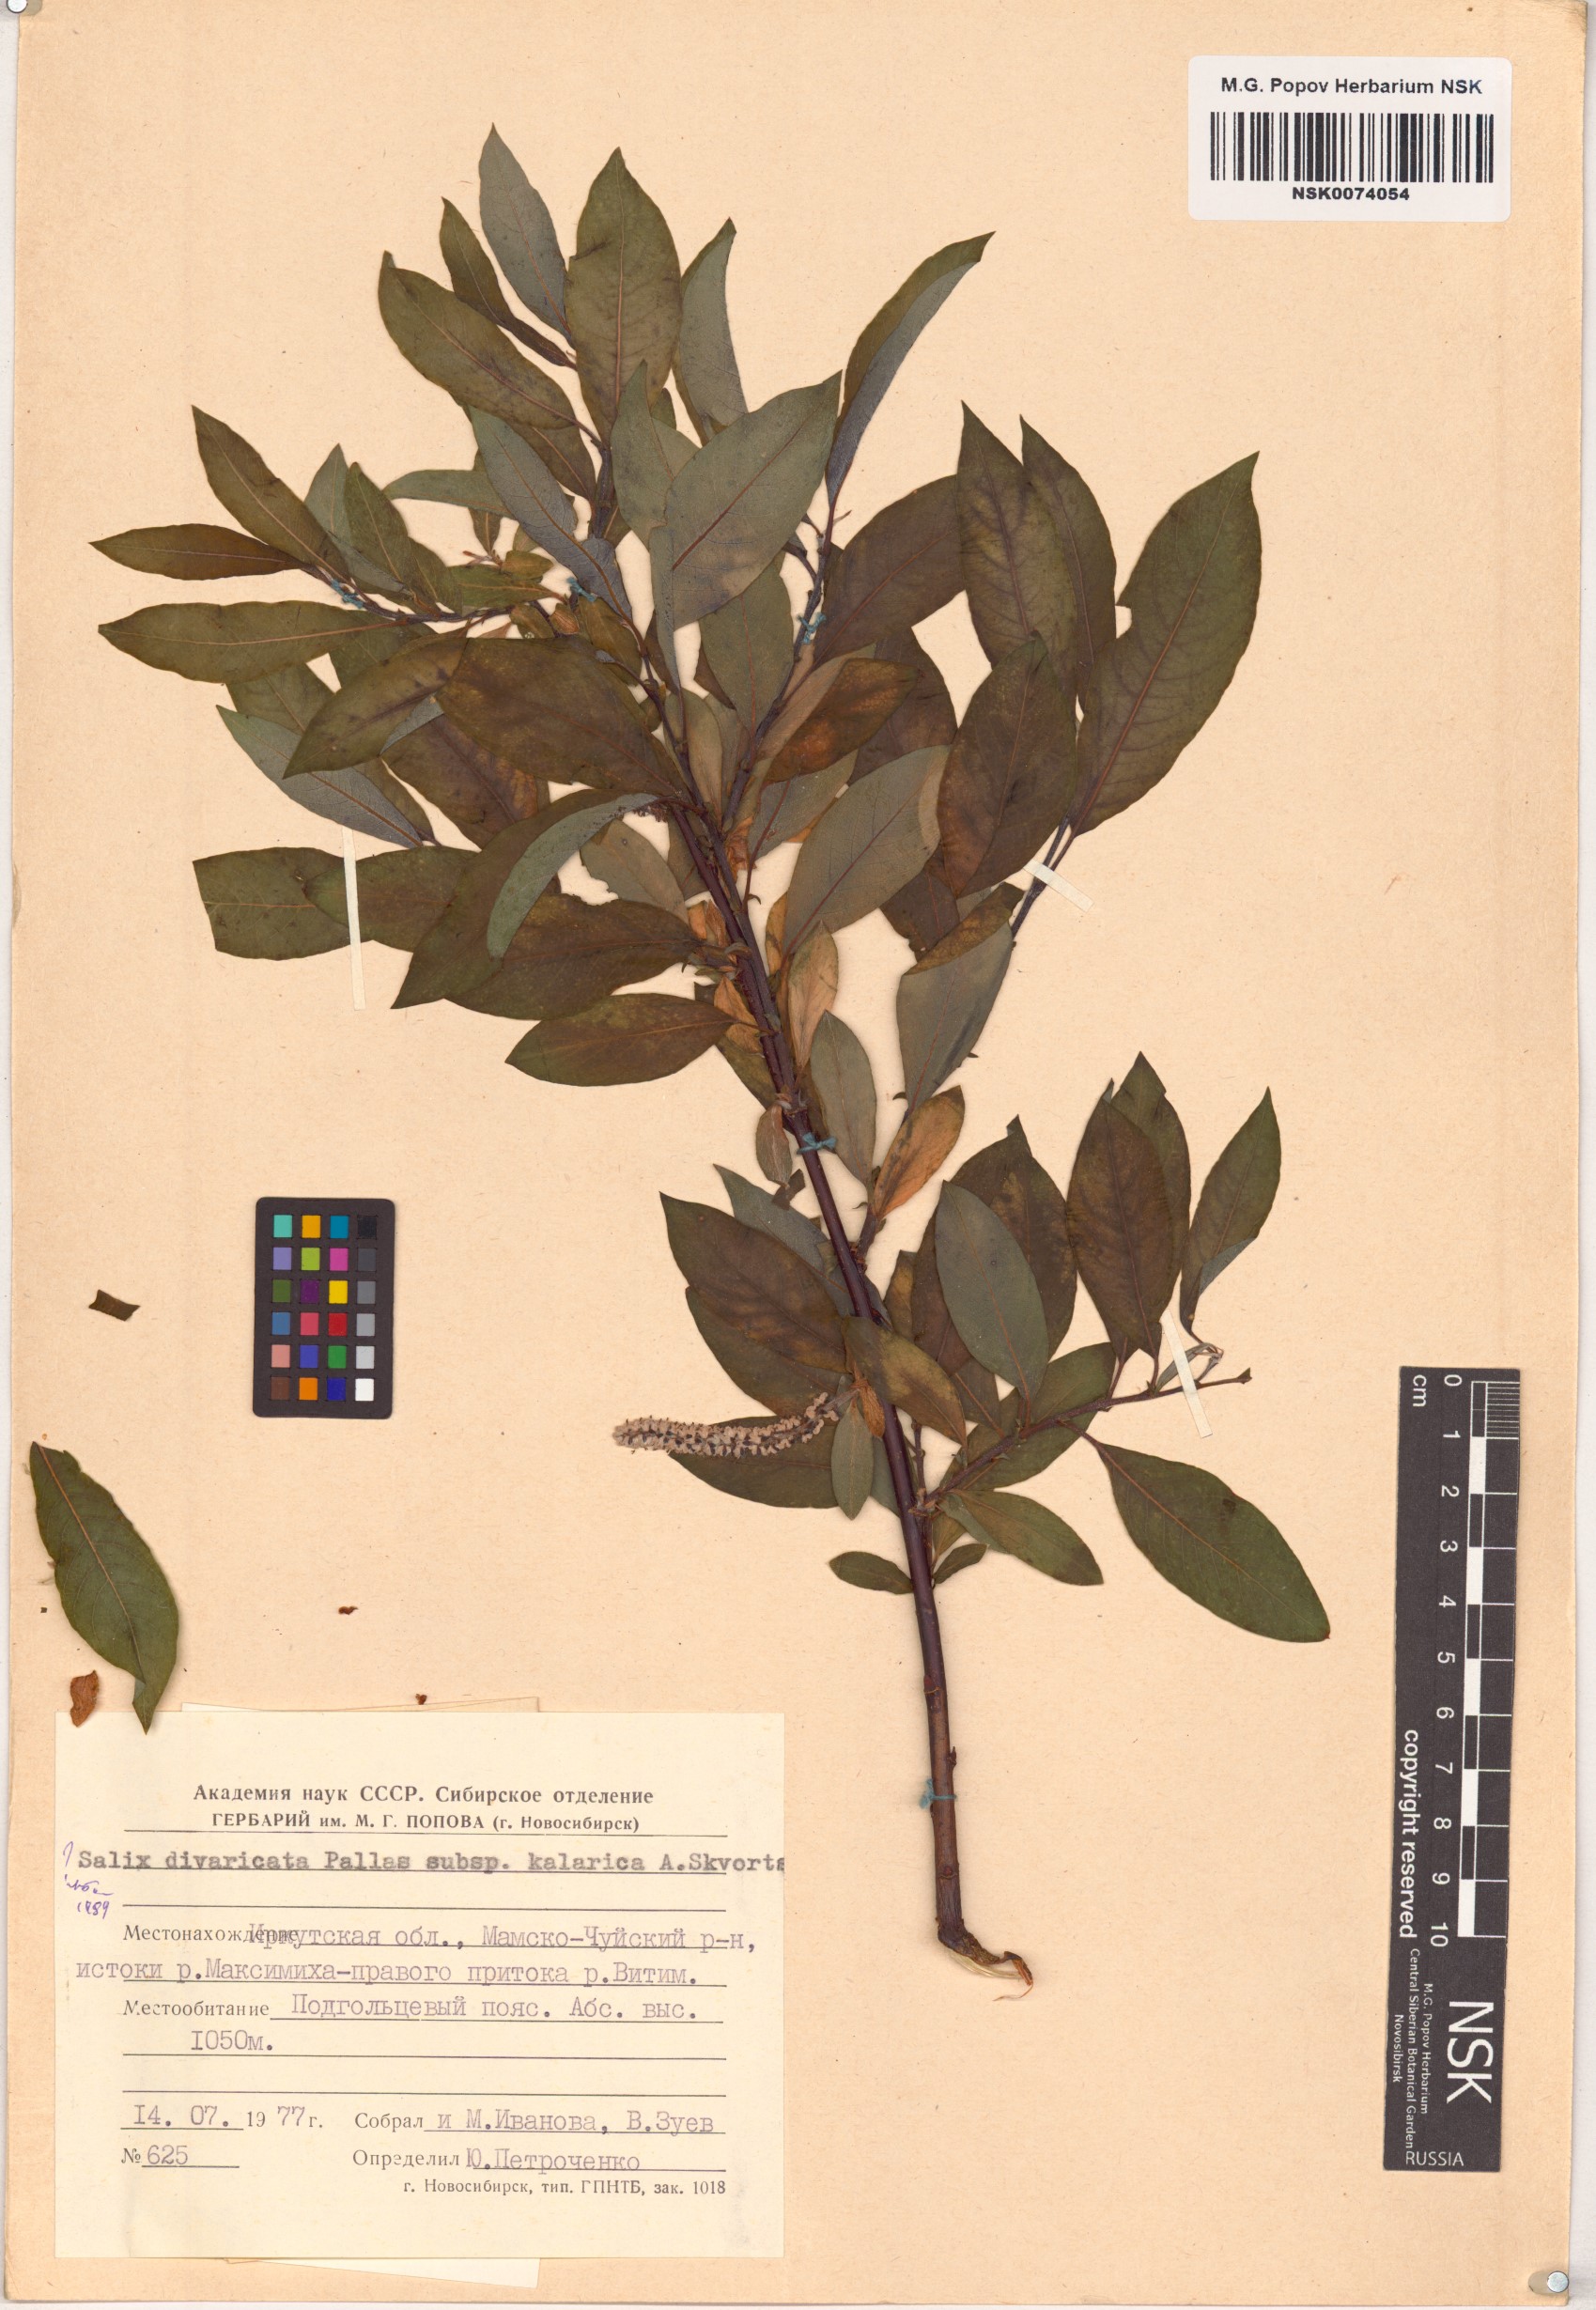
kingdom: Plantae
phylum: Tracheophyta
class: Magnoliopsida
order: Malpighiales
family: Salicaceae
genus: Salix
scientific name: Salix kalarica
